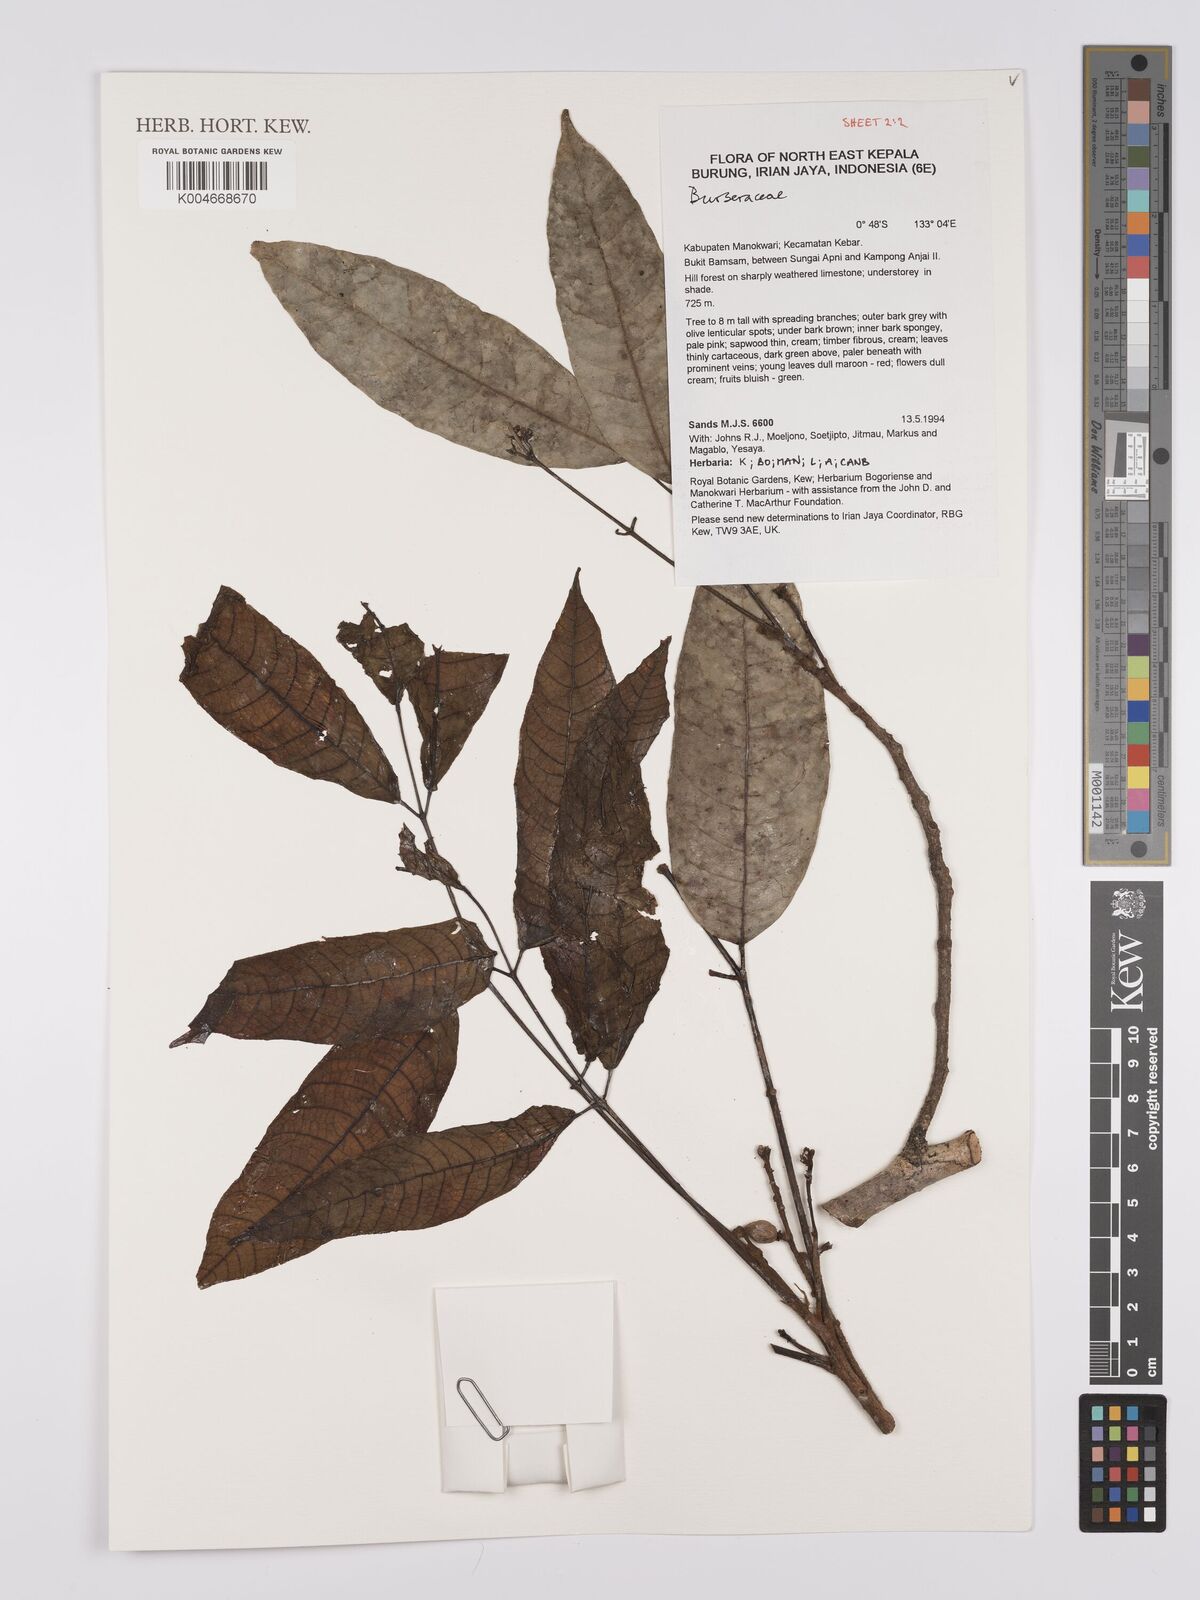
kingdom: Plantae
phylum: Tracheophyta
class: Magnoliopsida
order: Sapindales
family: Burseraceae
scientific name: Burseraceae
